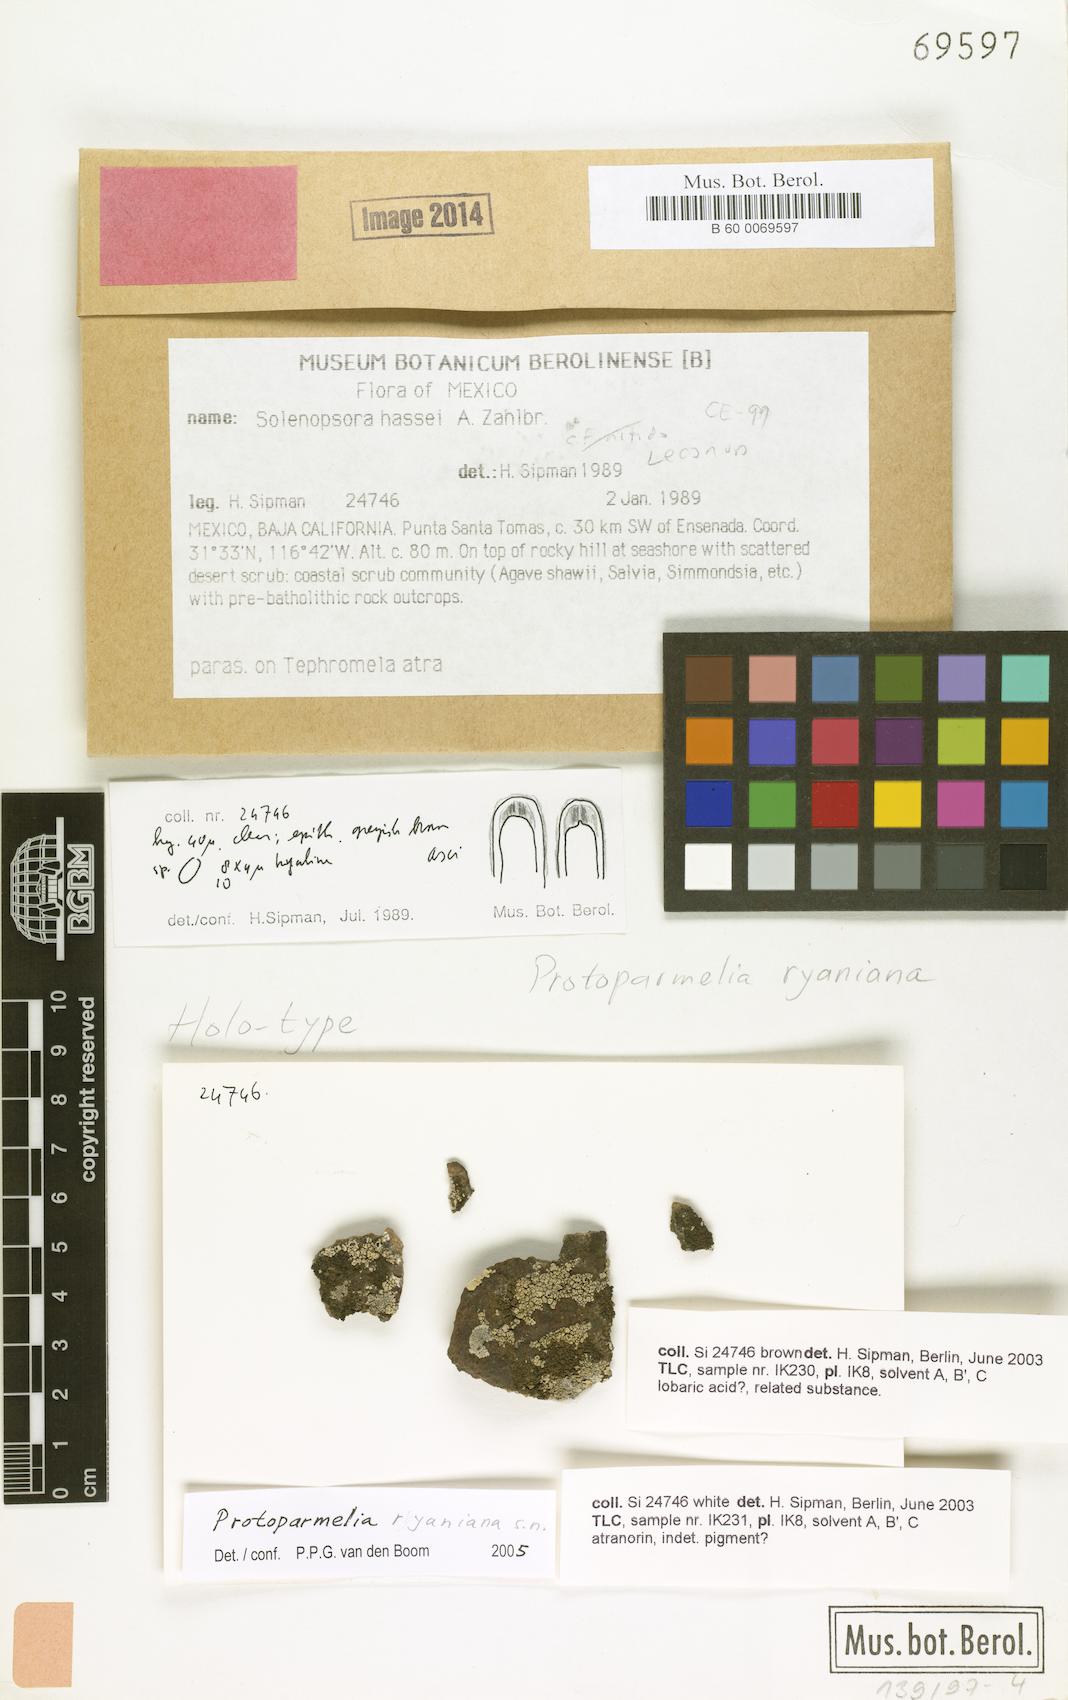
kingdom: Fungi
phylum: Ascomycota
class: Lecanoromycetes
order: Lecanorales
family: Parmeliaceae
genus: Protoparmelia
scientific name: Protoparmelia ryaniana
